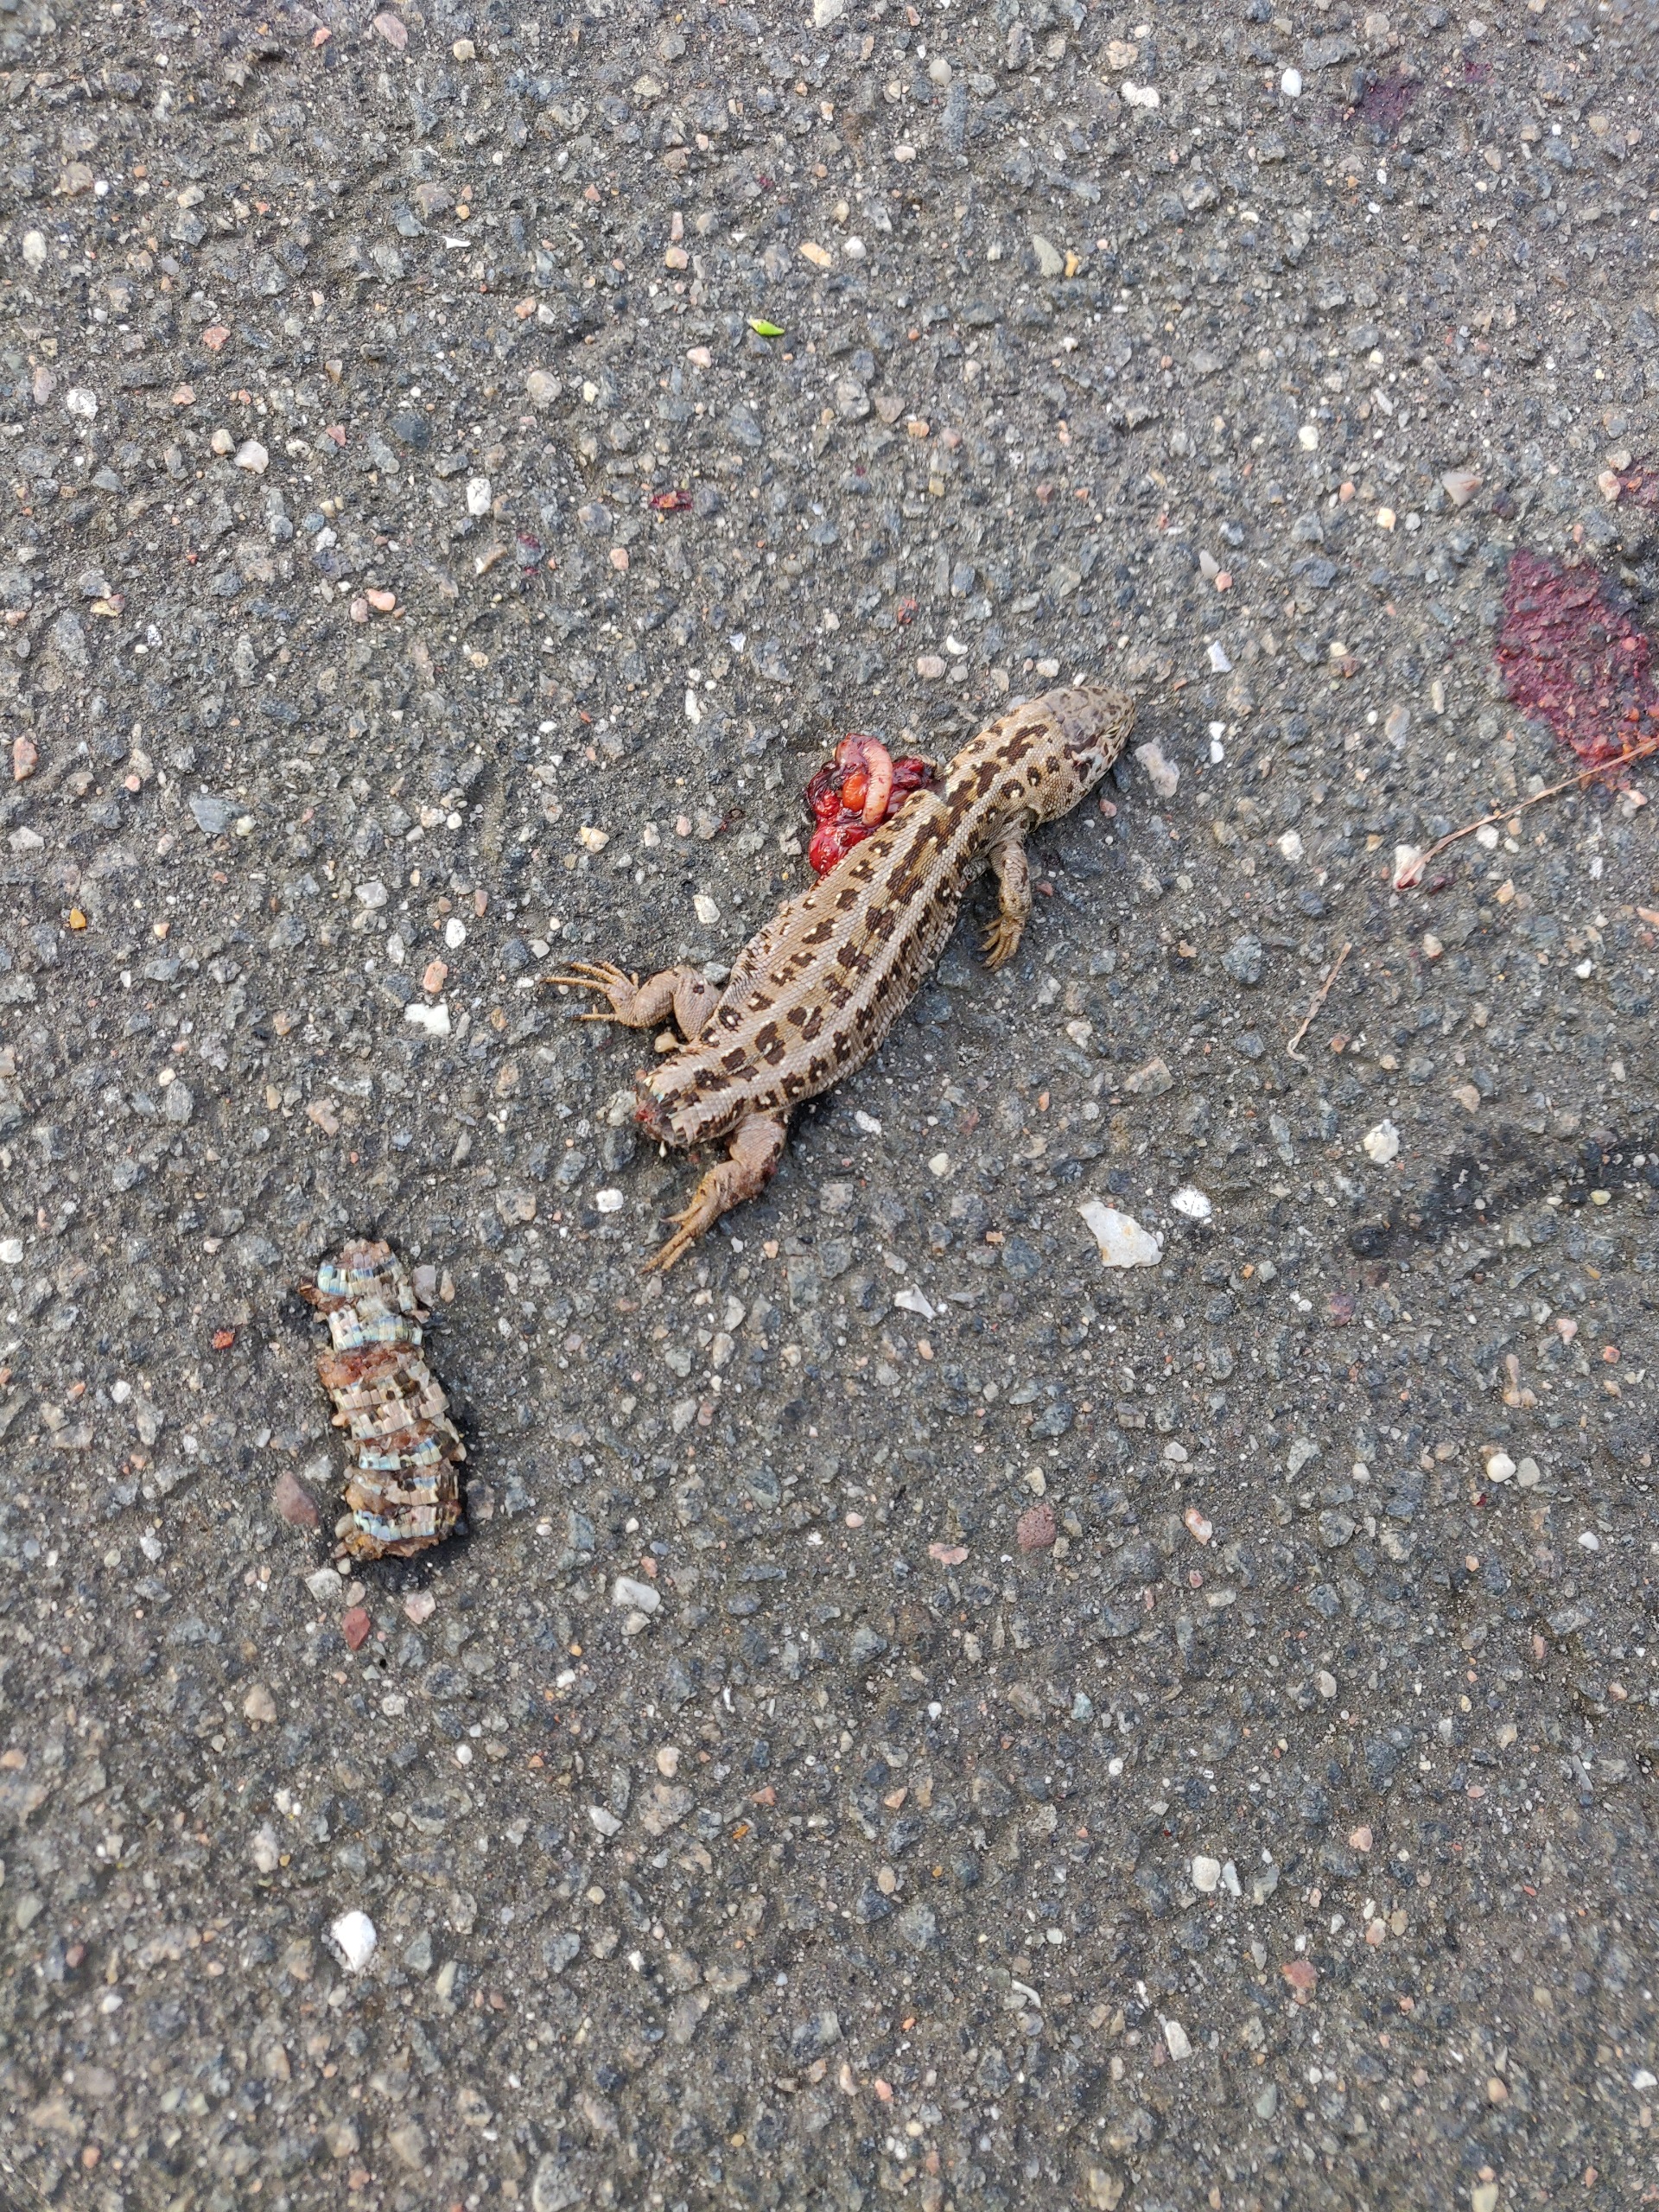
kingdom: Animalia
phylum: Chordata
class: Squamata
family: Lacertidae
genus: Lacerta
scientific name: Lacerta agilis
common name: Markfirben
